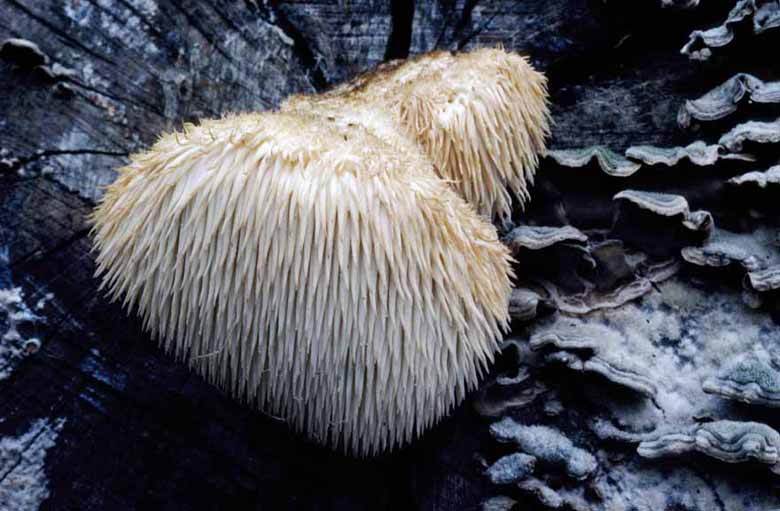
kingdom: Fungi
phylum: Basidiomycota
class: Agaricomycetes
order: Russulales
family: Hericiaceae
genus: Hericium
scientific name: Hericium erinaceus
